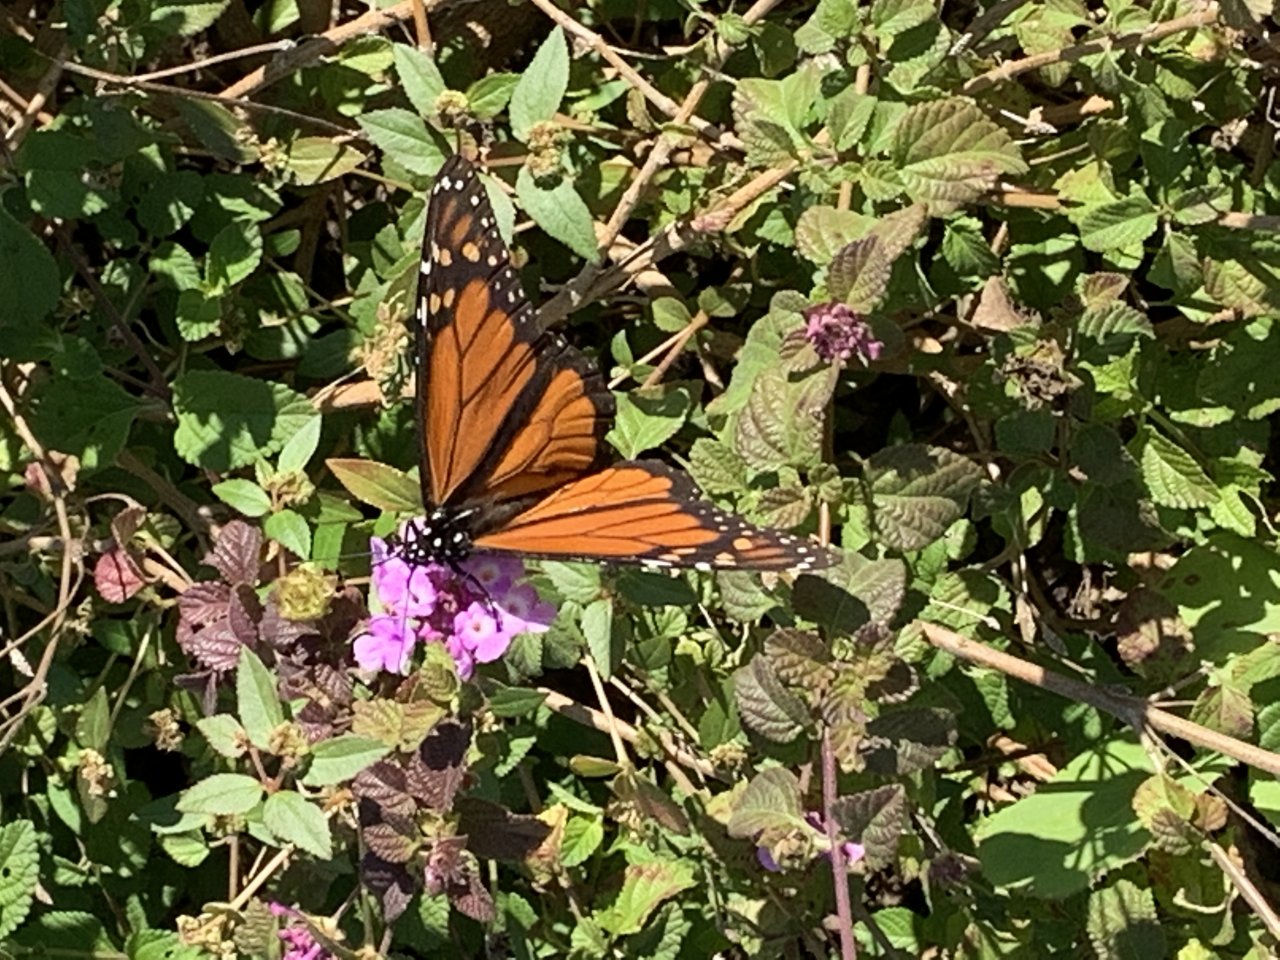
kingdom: Animalia
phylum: Arthropoda
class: Insecta
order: Lepidoptera
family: Nymphalidae
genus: Danaus
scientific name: Danaus plexippus
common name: Monarch
